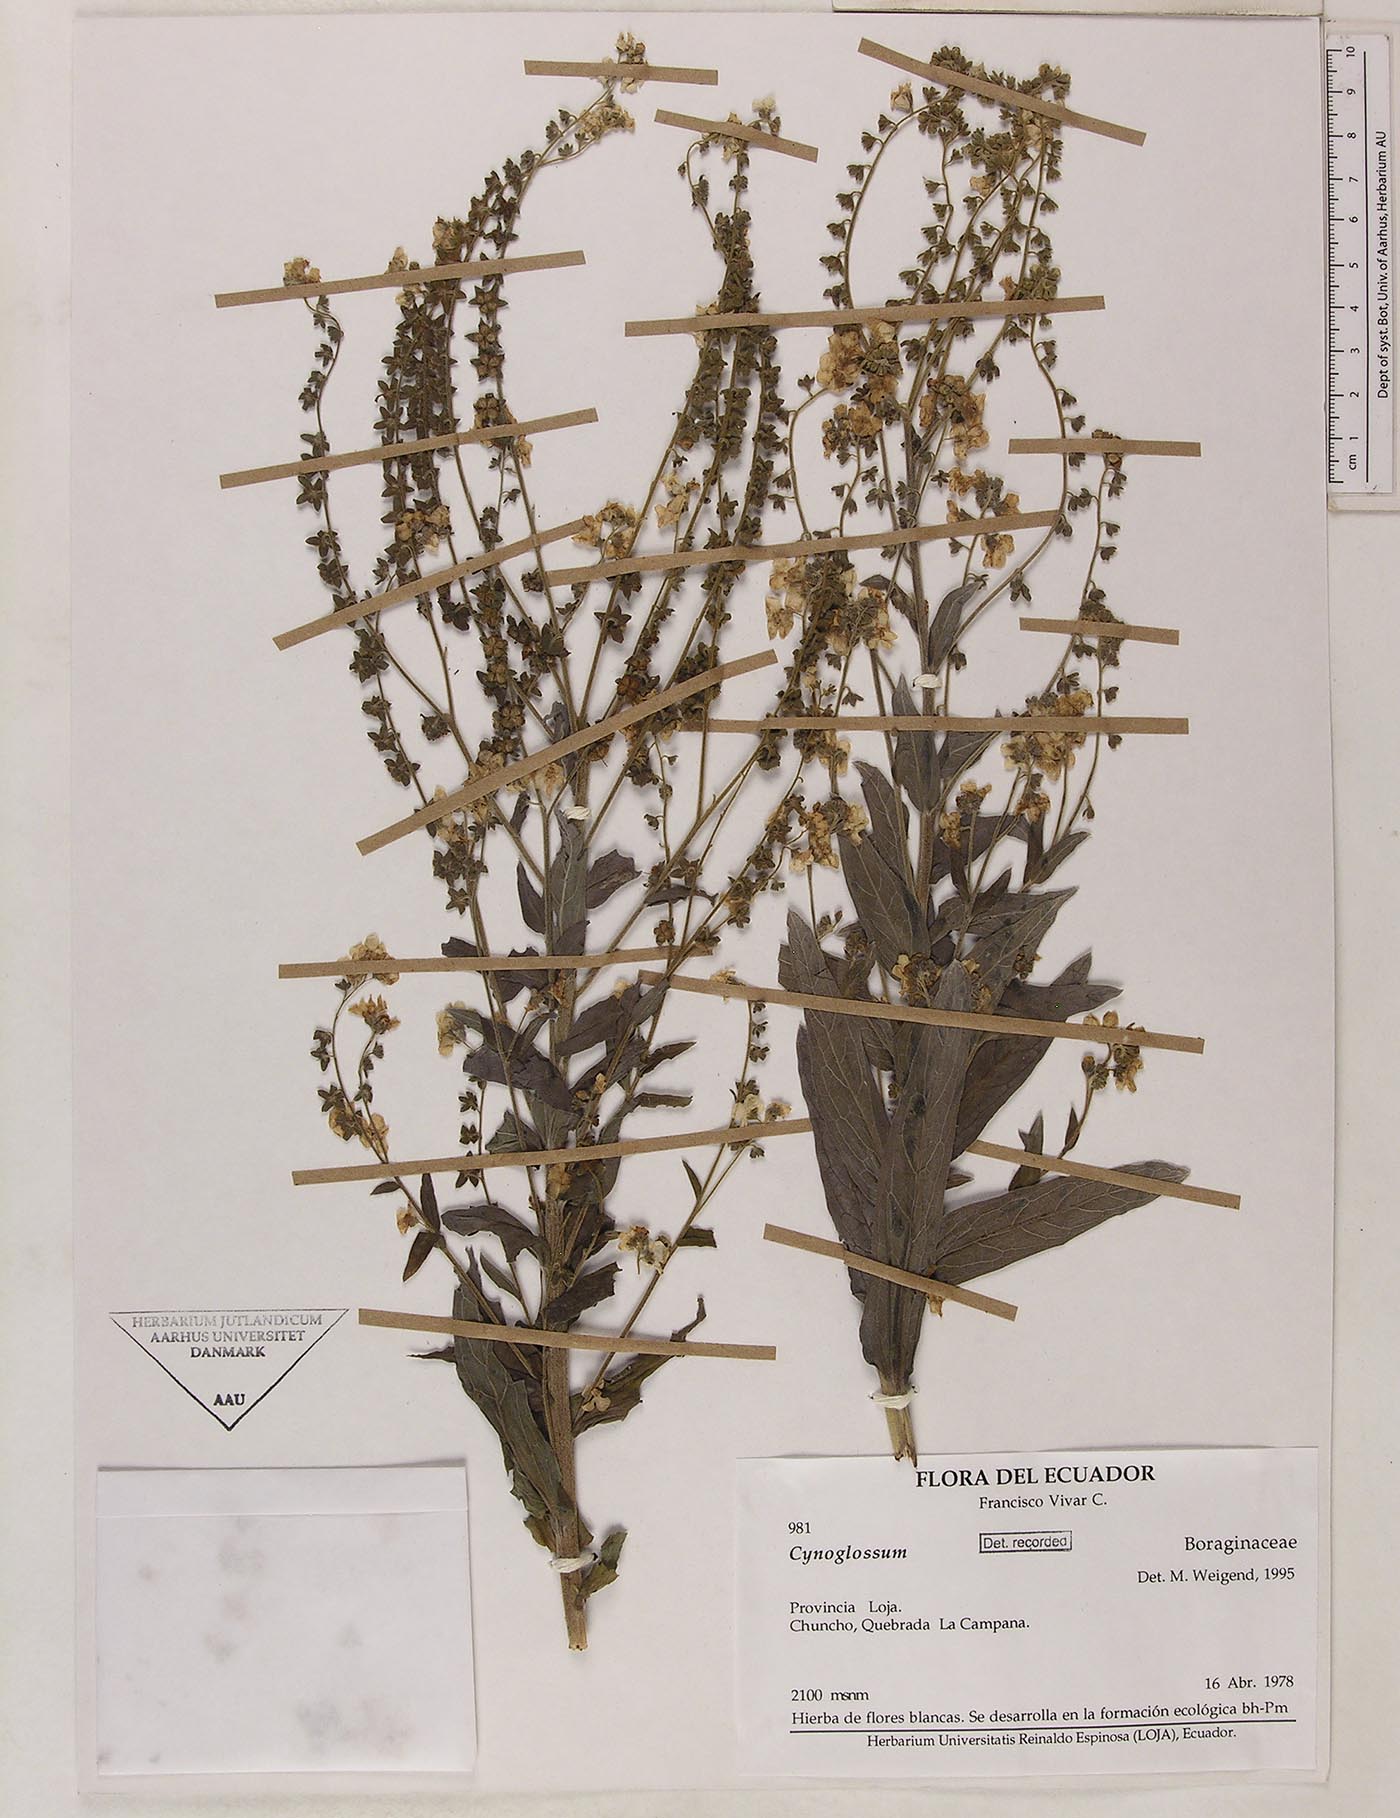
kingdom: Plantae
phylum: Tracheophyta
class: Magnoliopsida
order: Boraginales
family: Boraginaceae
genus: Cynoglossum
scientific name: Cynoglossum amabile
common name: Chinese hound's tongue
